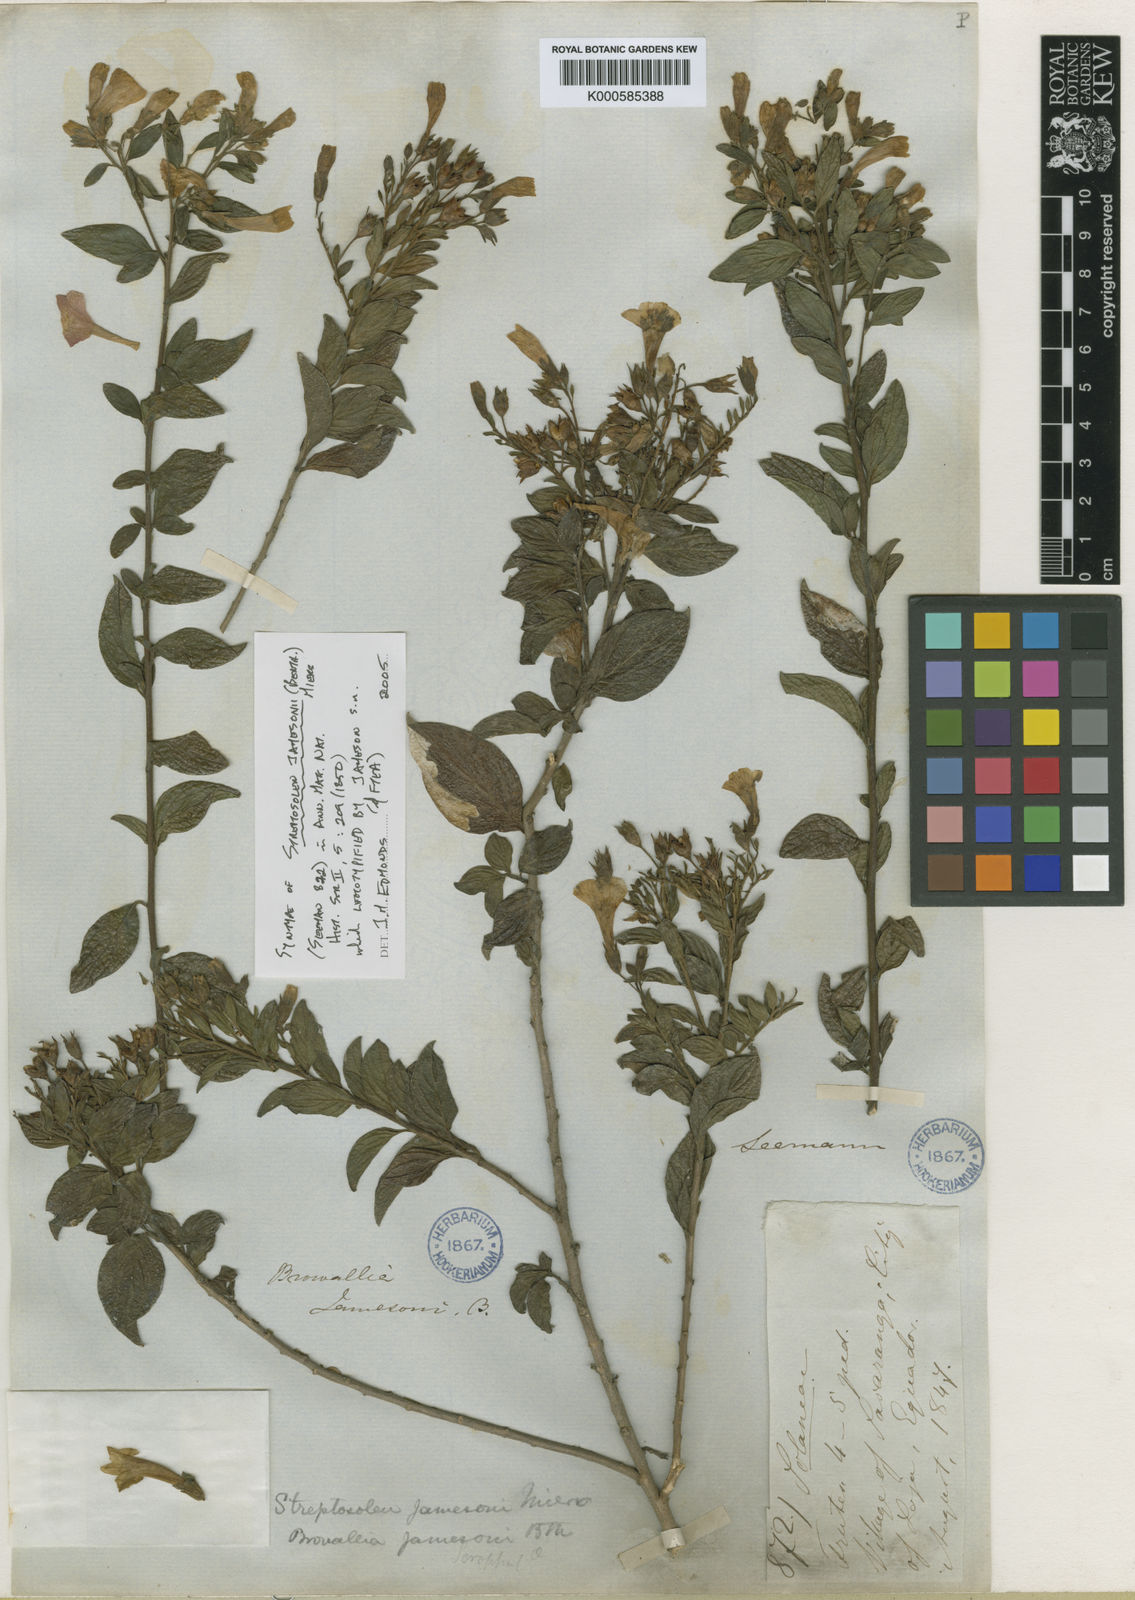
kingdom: Plantae
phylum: Tracheophyta
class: Magnoliopsida
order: Solanales
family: Solanaceae
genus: Streptosolen
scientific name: Streptosolen jamesonii
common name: Marmalade bush
